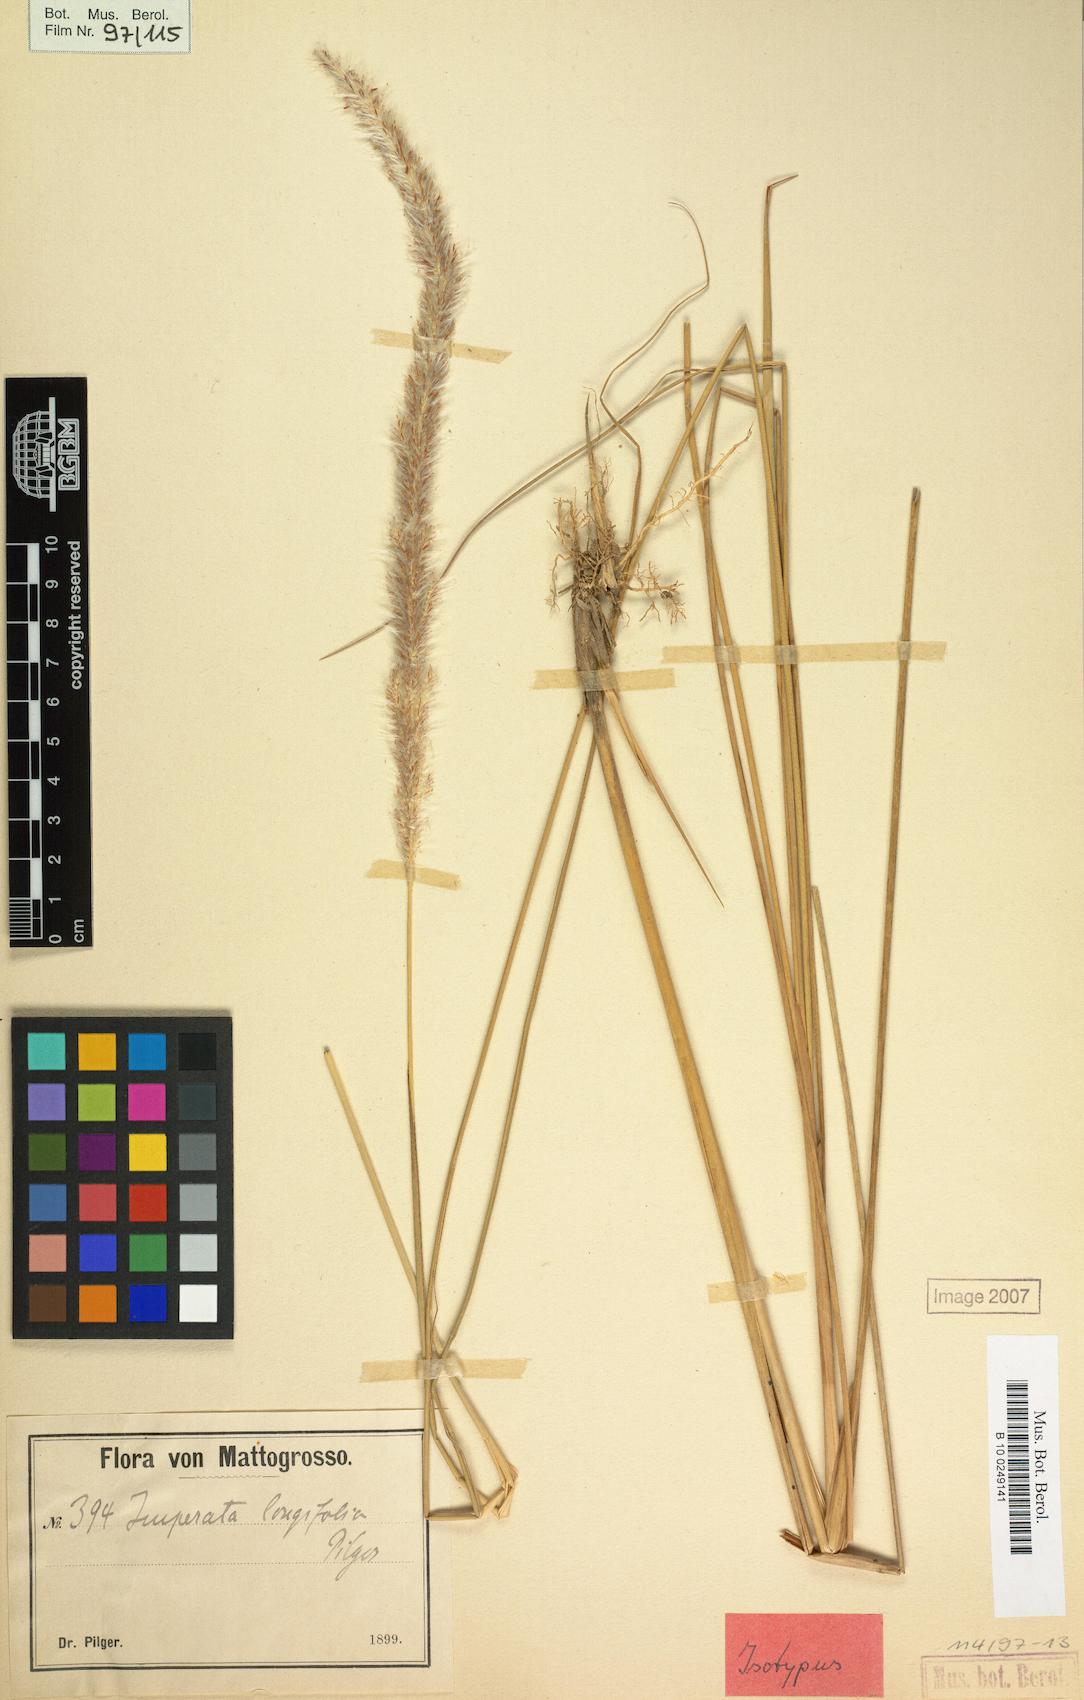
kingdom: Plantae
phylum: Tracheophyta
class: Liliopsida
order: Poales
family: Poaceae
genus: Imperata
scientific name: Imperata contracta
